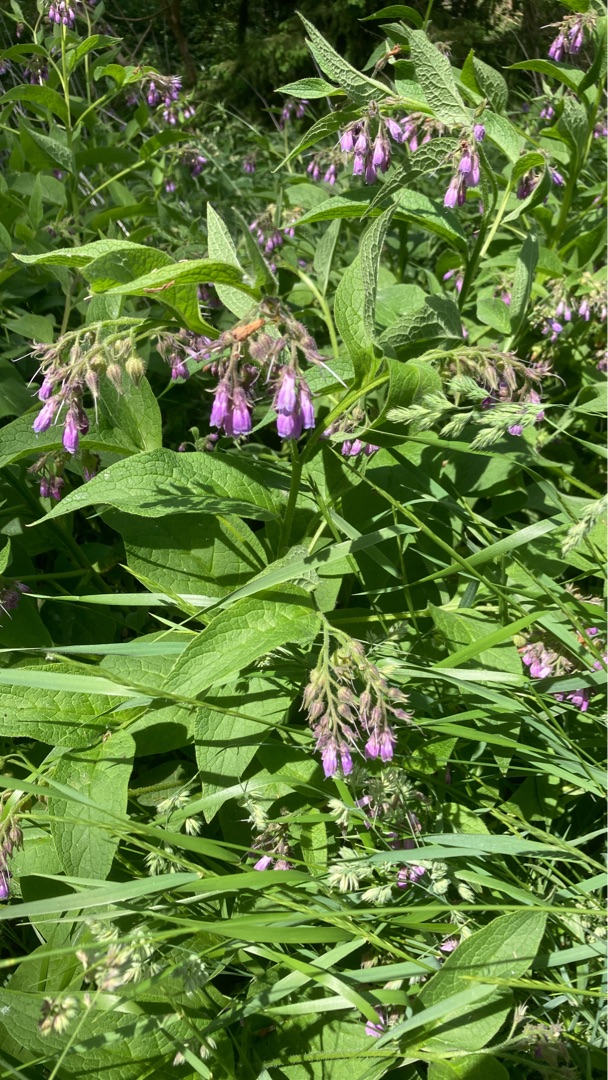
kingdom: Plantae
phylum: Tracheophyta
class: Magnoliopsida
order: Boraginales
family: Boraginaceae
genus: Symphytum
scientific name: Symphytum uplandicum
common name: Foder-kulsukker
